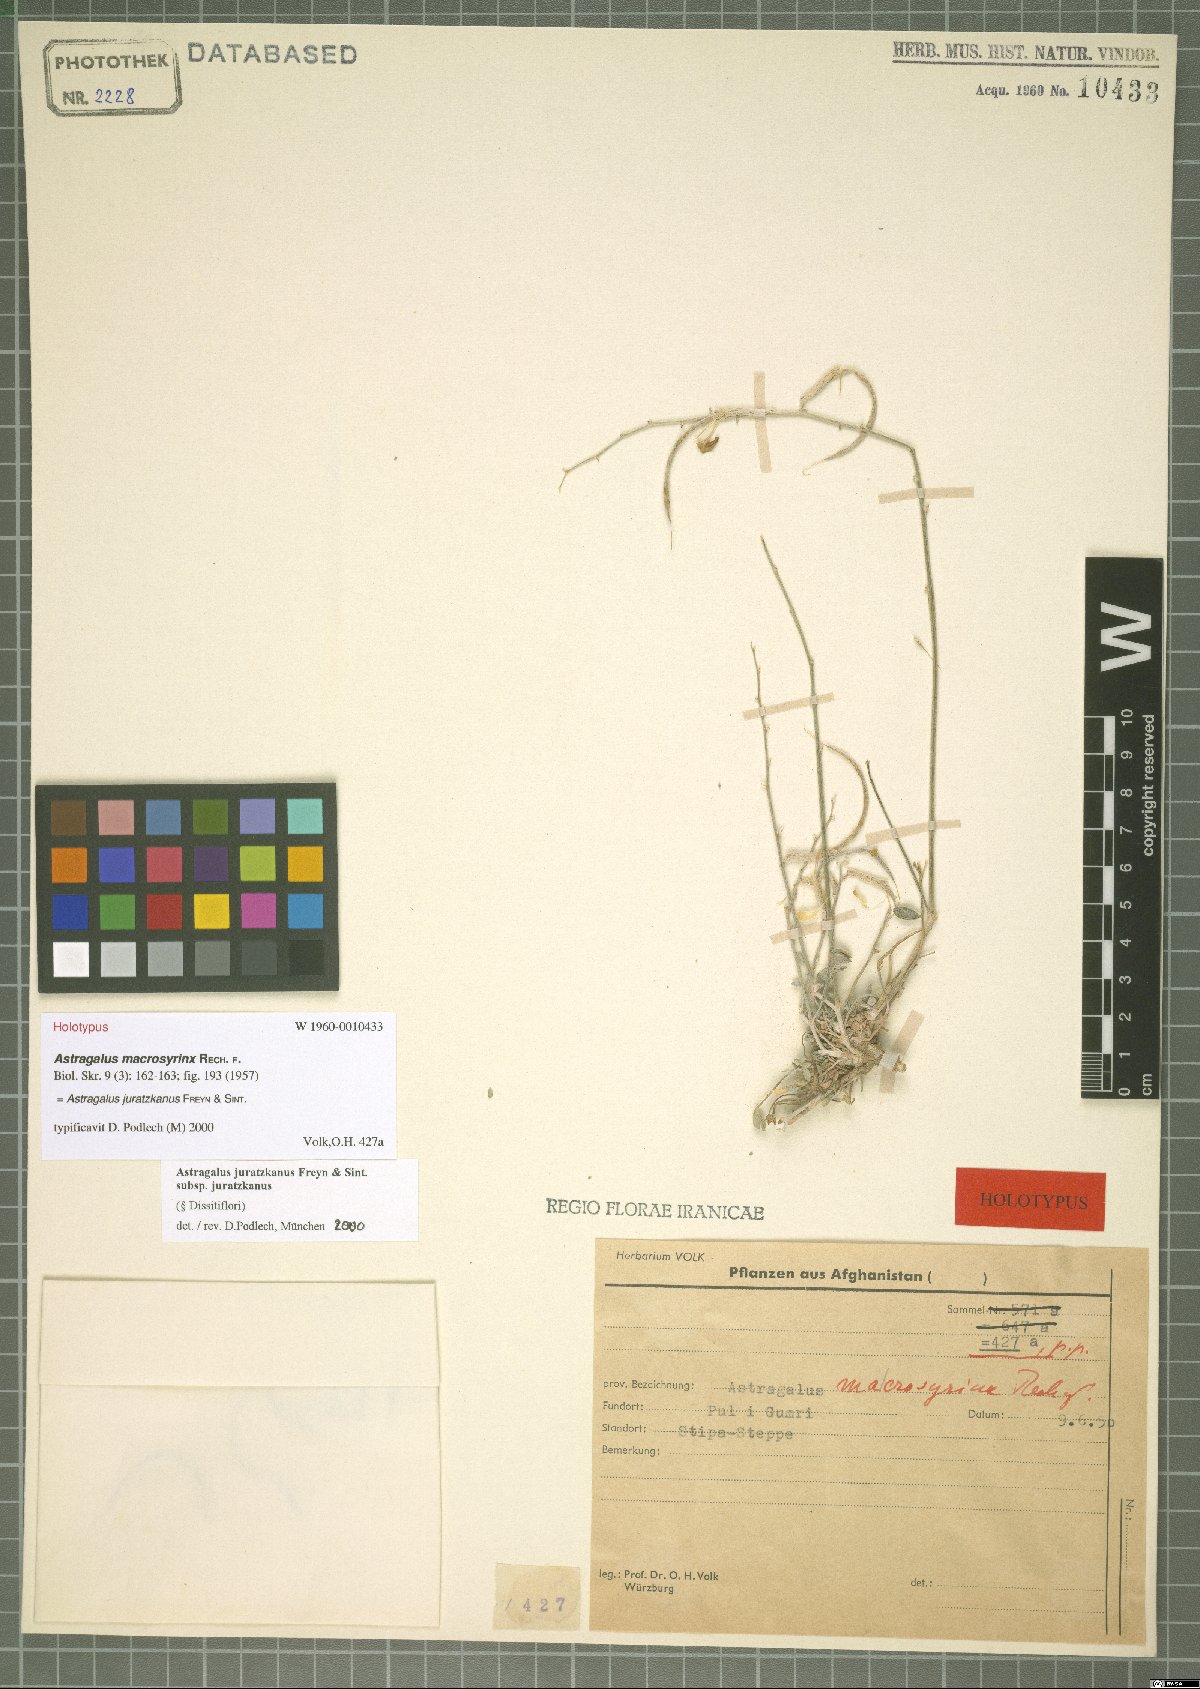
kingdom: Plantae
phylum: Tracheophyta
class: Magnoliopsida
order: Fabales
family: Fabaceae
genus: Astragalus
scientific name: Astragalus juratzkanus
